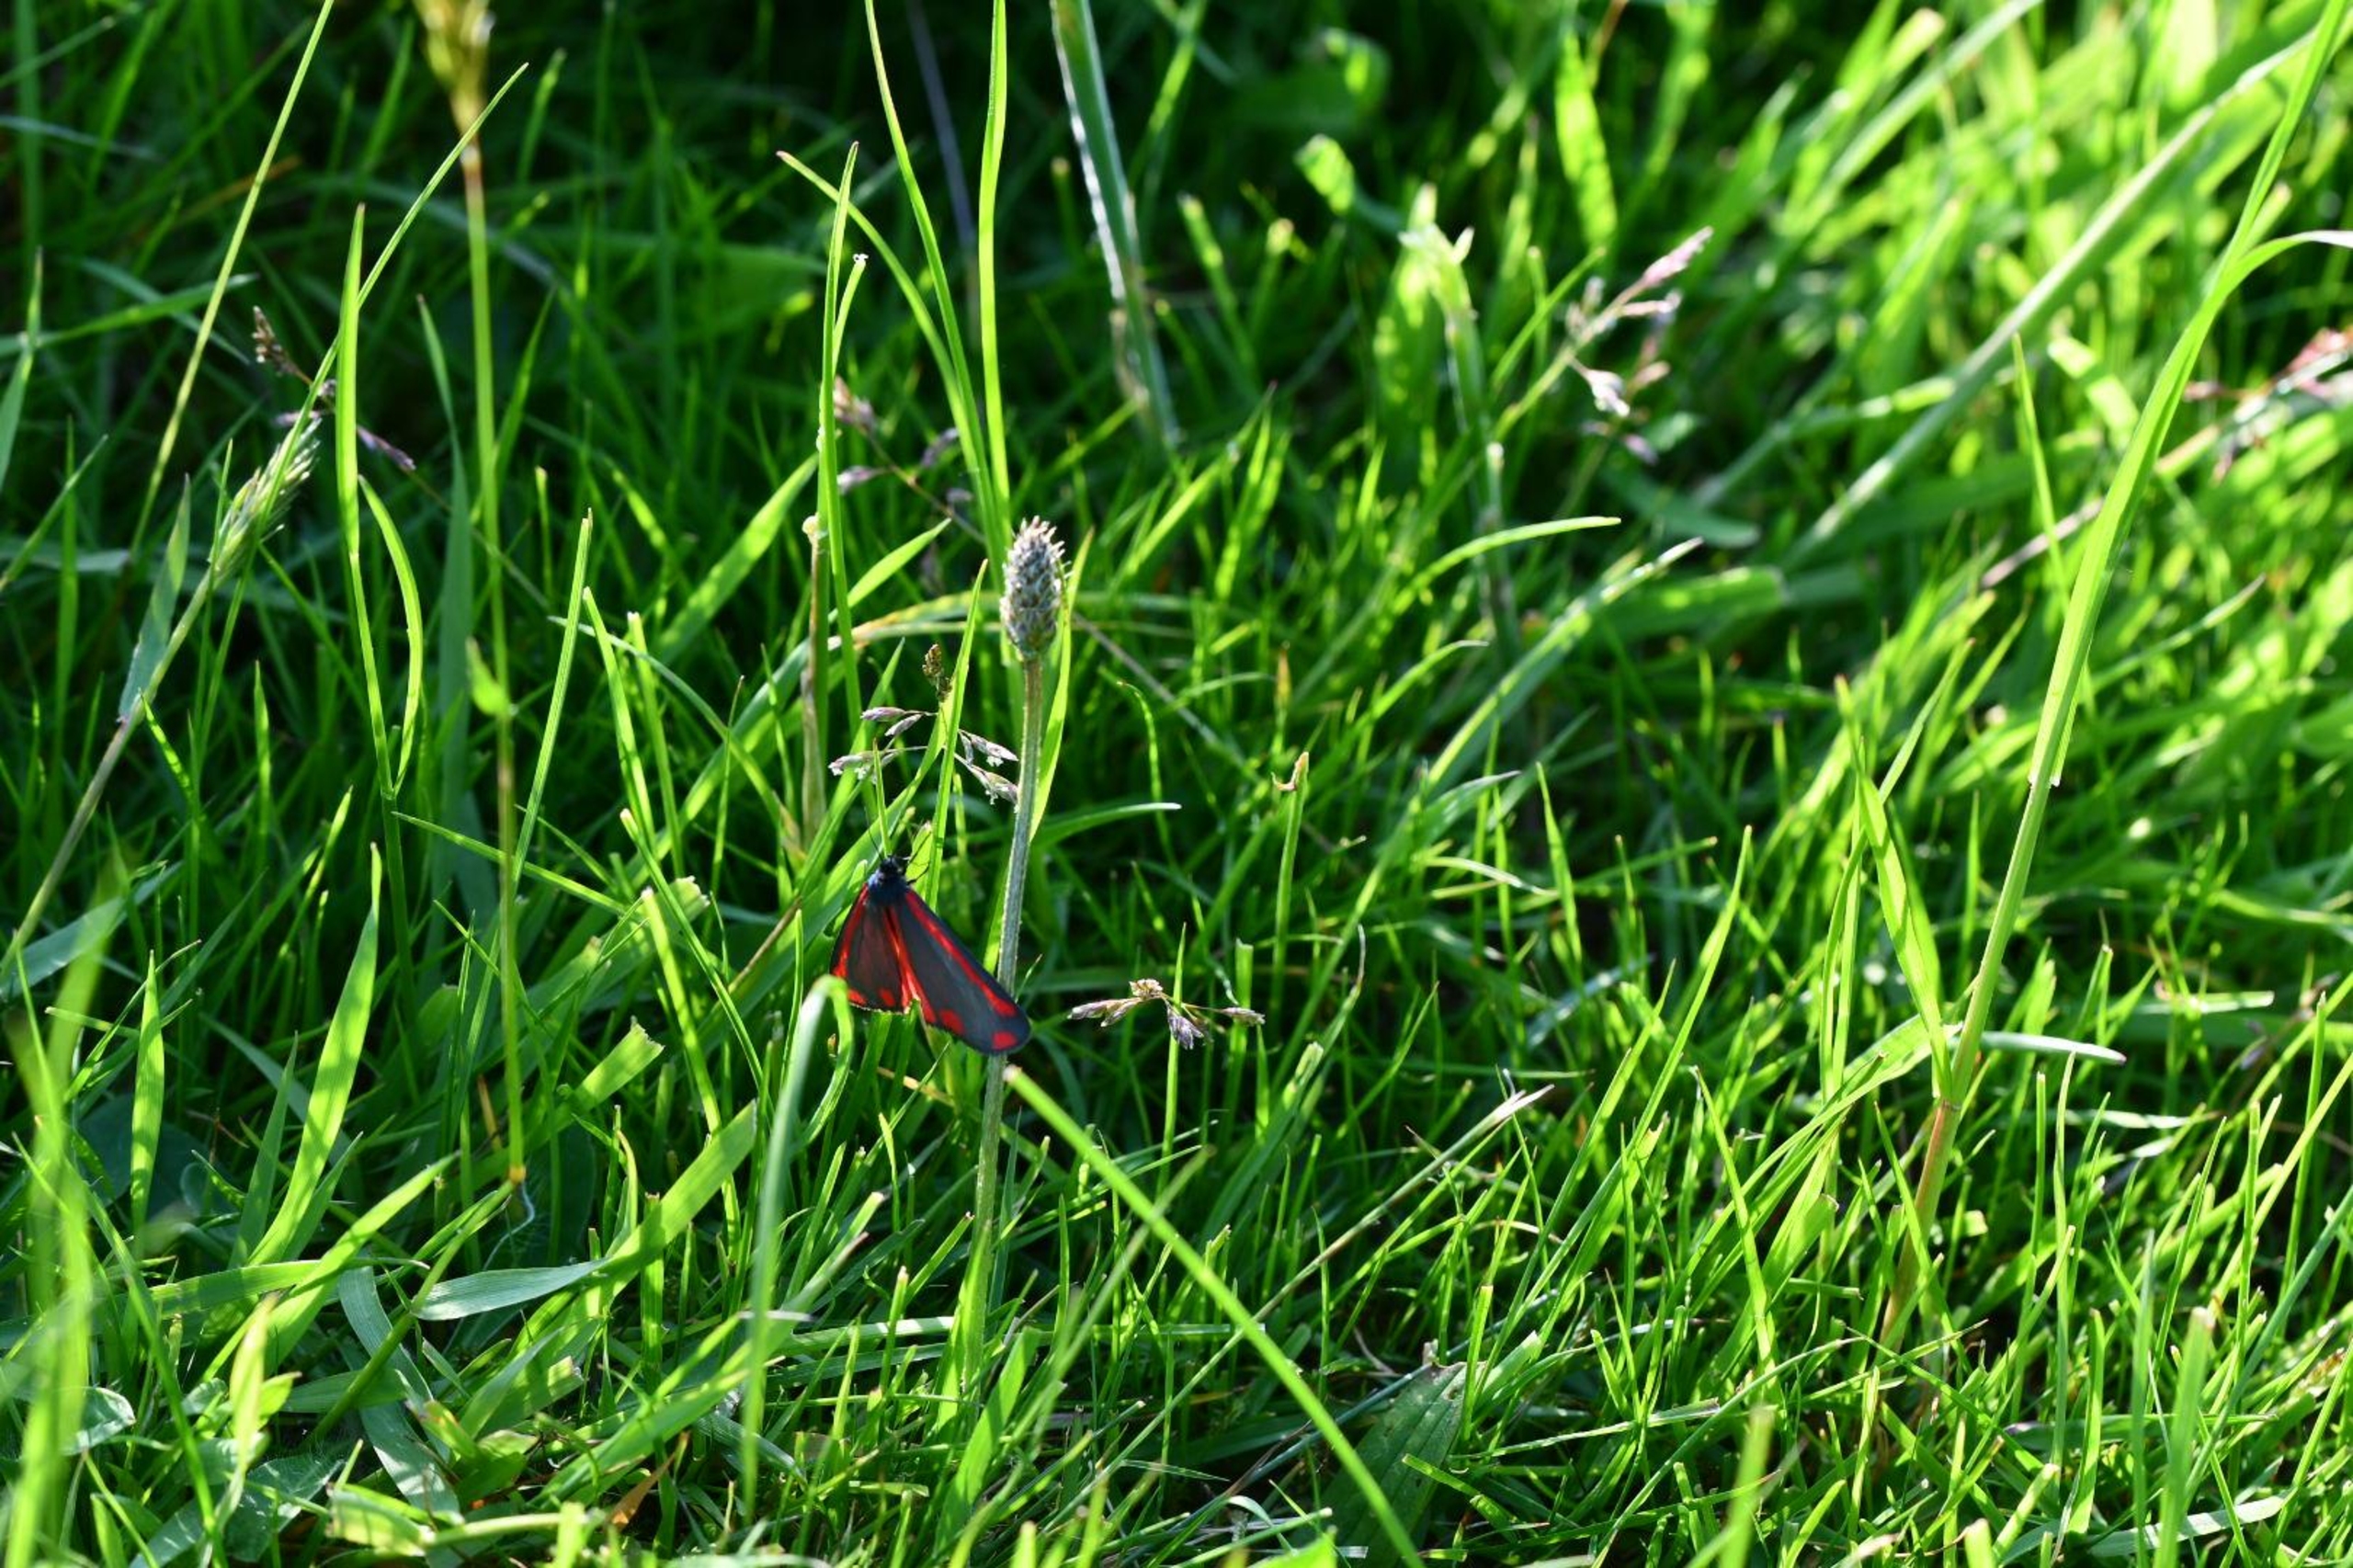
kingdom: Animalia
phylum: Arthropoda
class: Insecta
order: Lepidoptera
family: Erebidae
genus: Tyria
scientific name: Tyria jacobaeae
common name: Blodplet
